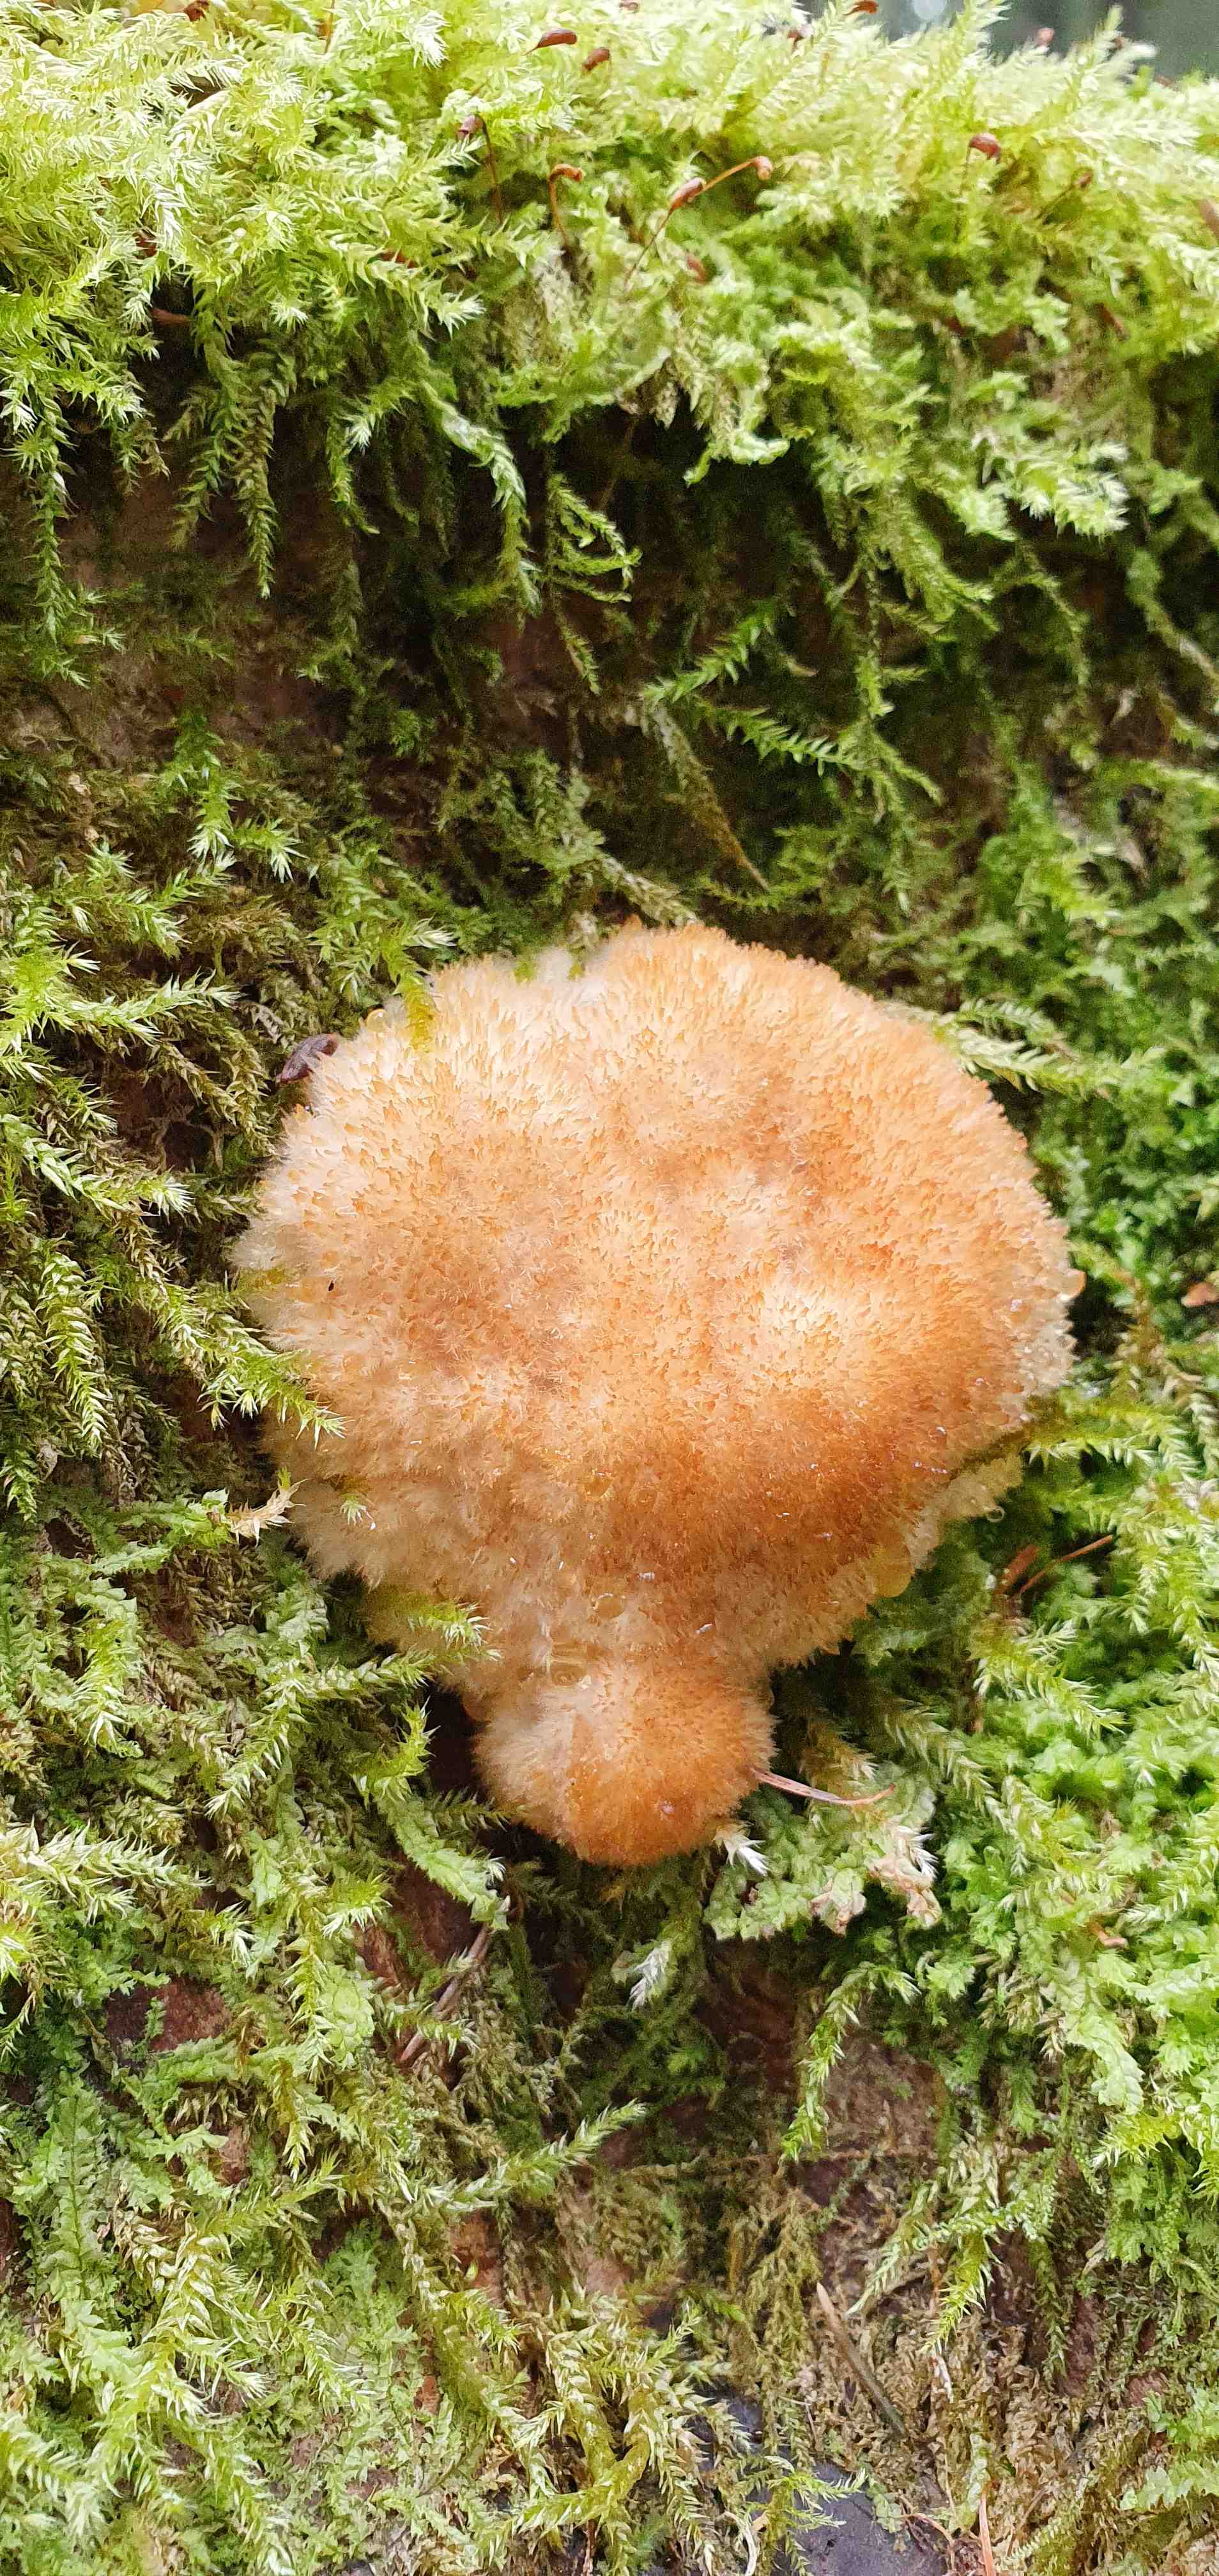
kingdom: Fungi
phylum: Basidiomycota
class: Agaricomycetes
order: Polyporales
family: Dacryobolaceae
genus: Postia
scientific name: Postia ptychogaster
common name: støvende kødporesvamp
